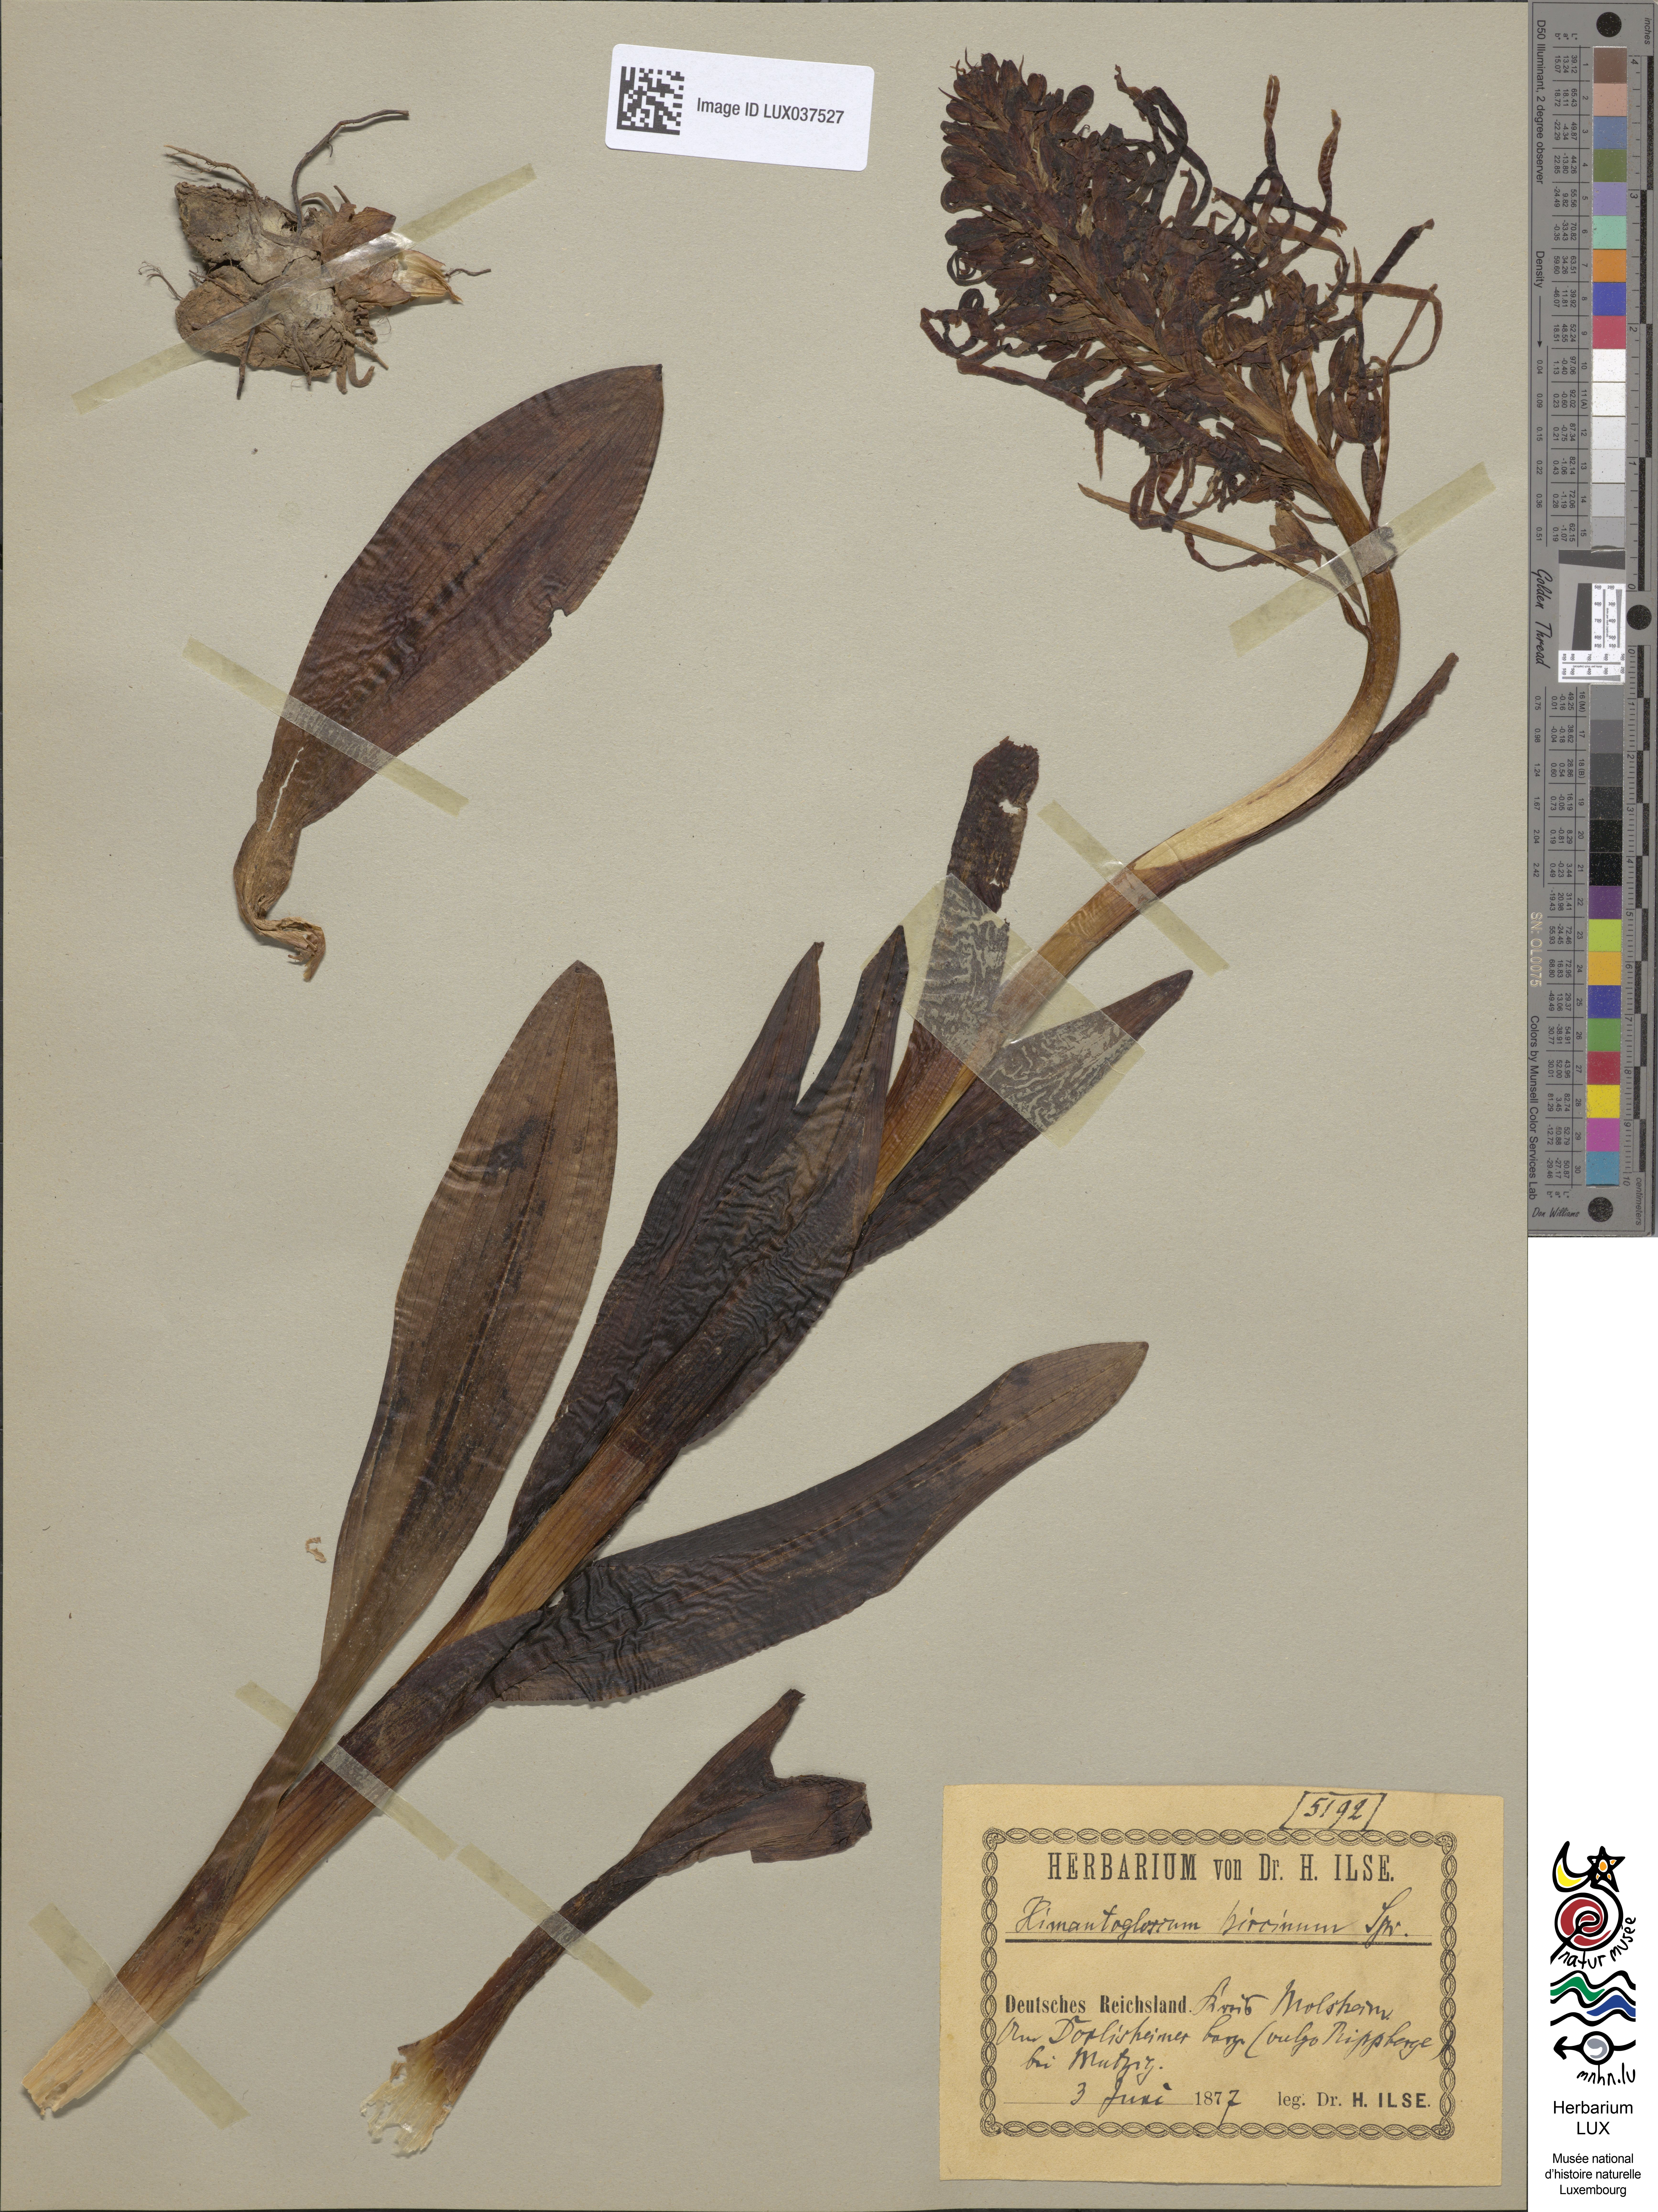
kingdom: Plantae
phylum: Tracheophyta
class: Liliopsida
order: Asparagales
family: Orchidaceae
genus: Himantoglossum
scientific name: Himantoglossum hircinum
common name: Lizard orchid
